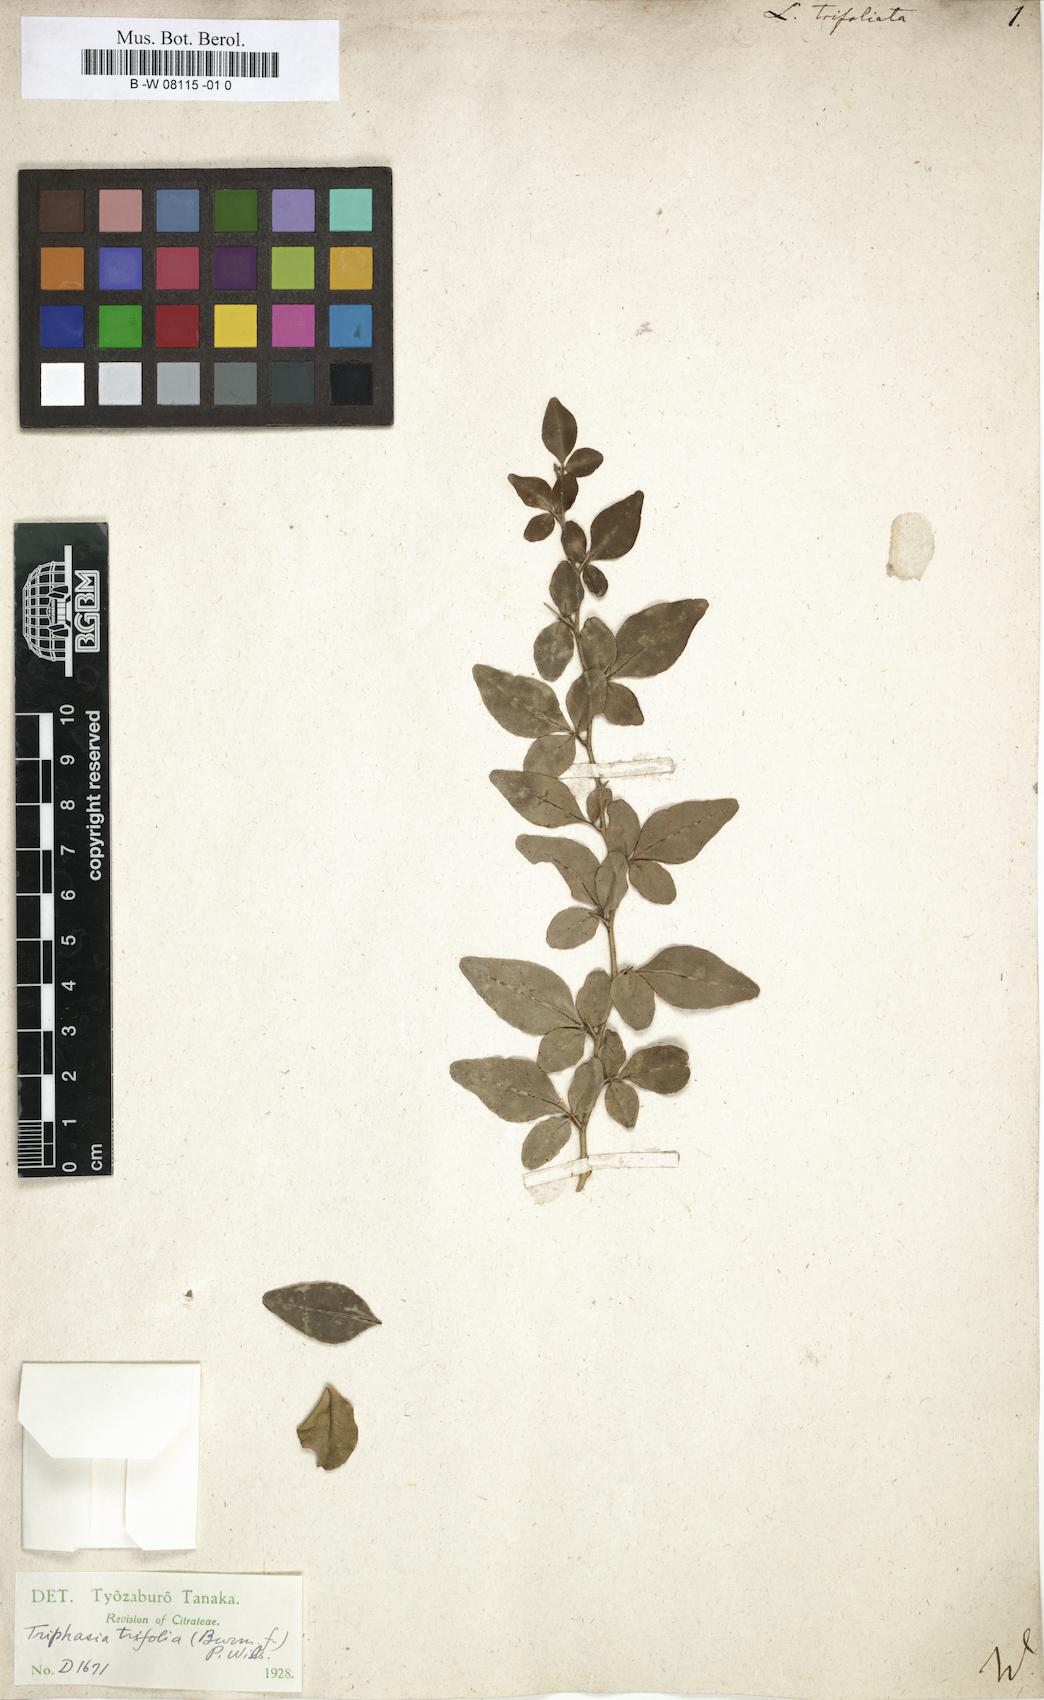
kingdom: Plantae
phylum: Tracheophyta
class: Magnoliopsida
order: Sapindales
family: Rutaceae
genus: Triphasia
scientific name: Triphasia trifolia
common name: Limeberry
